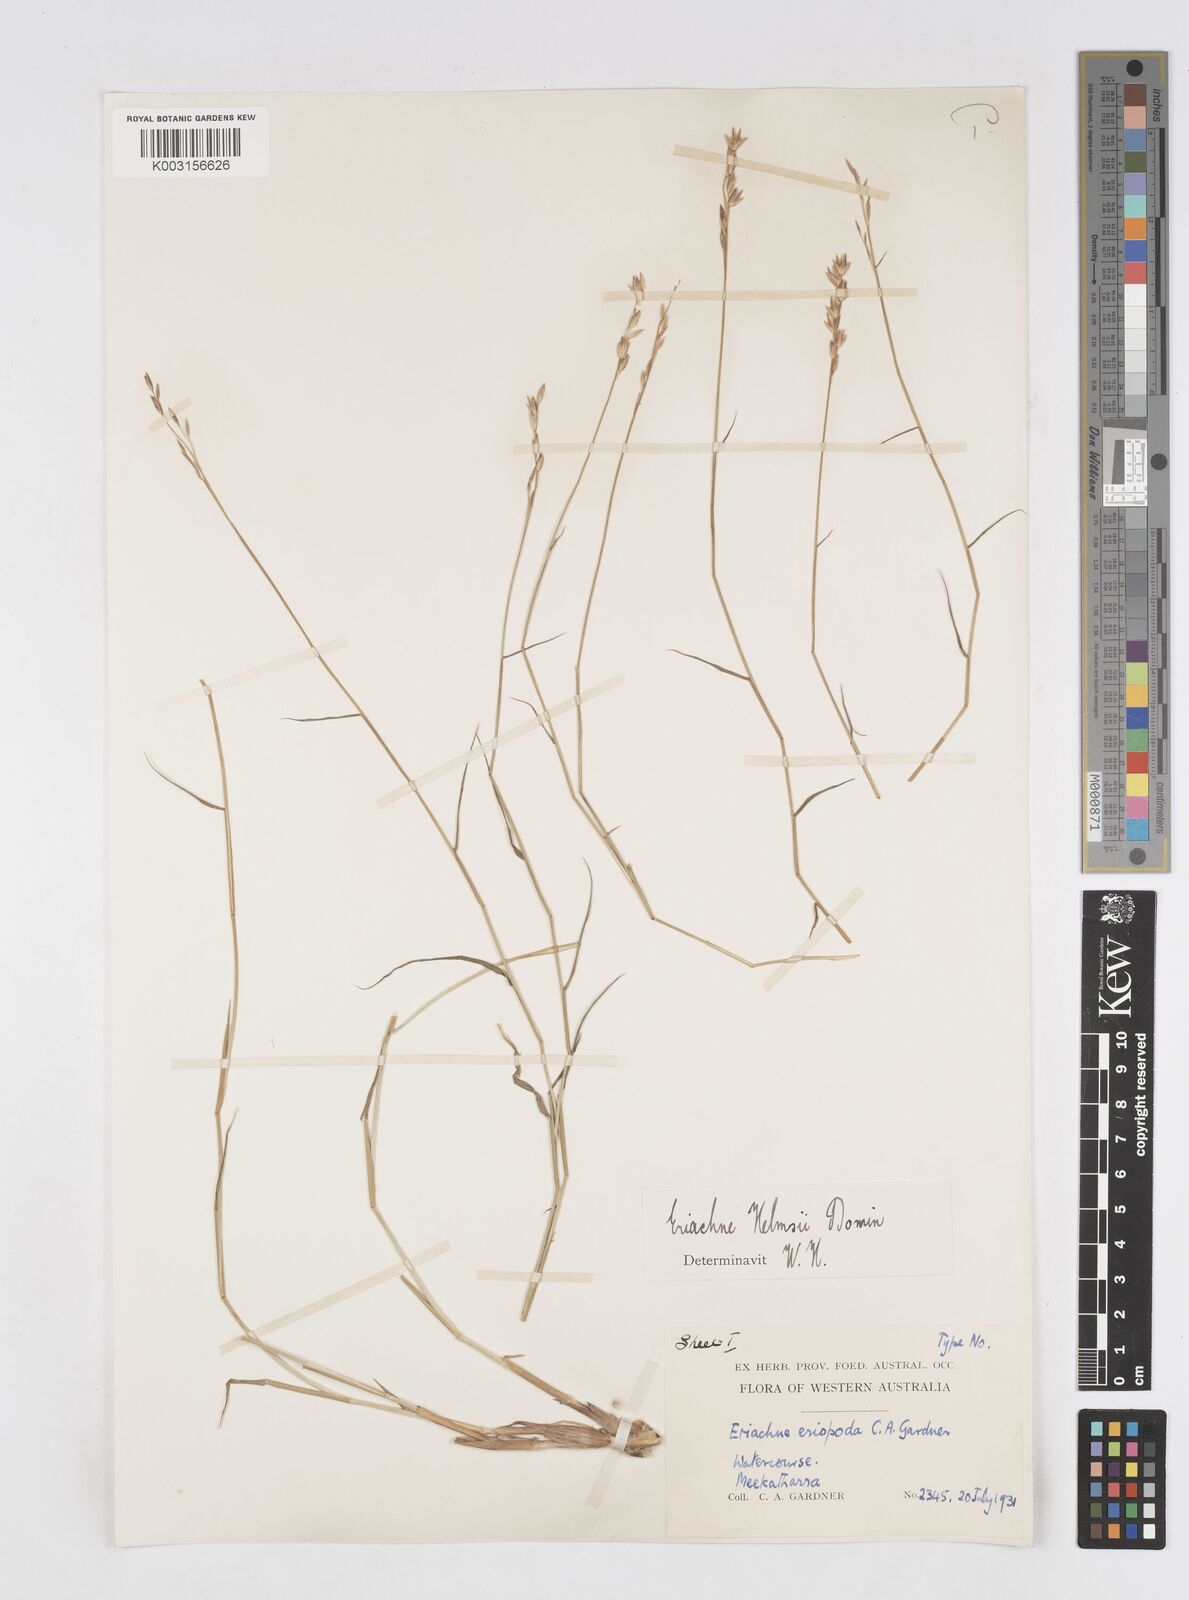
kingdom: Plantae
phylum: Tracheophyta
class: Liliopsida
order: Poales
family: Poaceae
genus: Eriachne
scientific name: Eriachne helmsii
